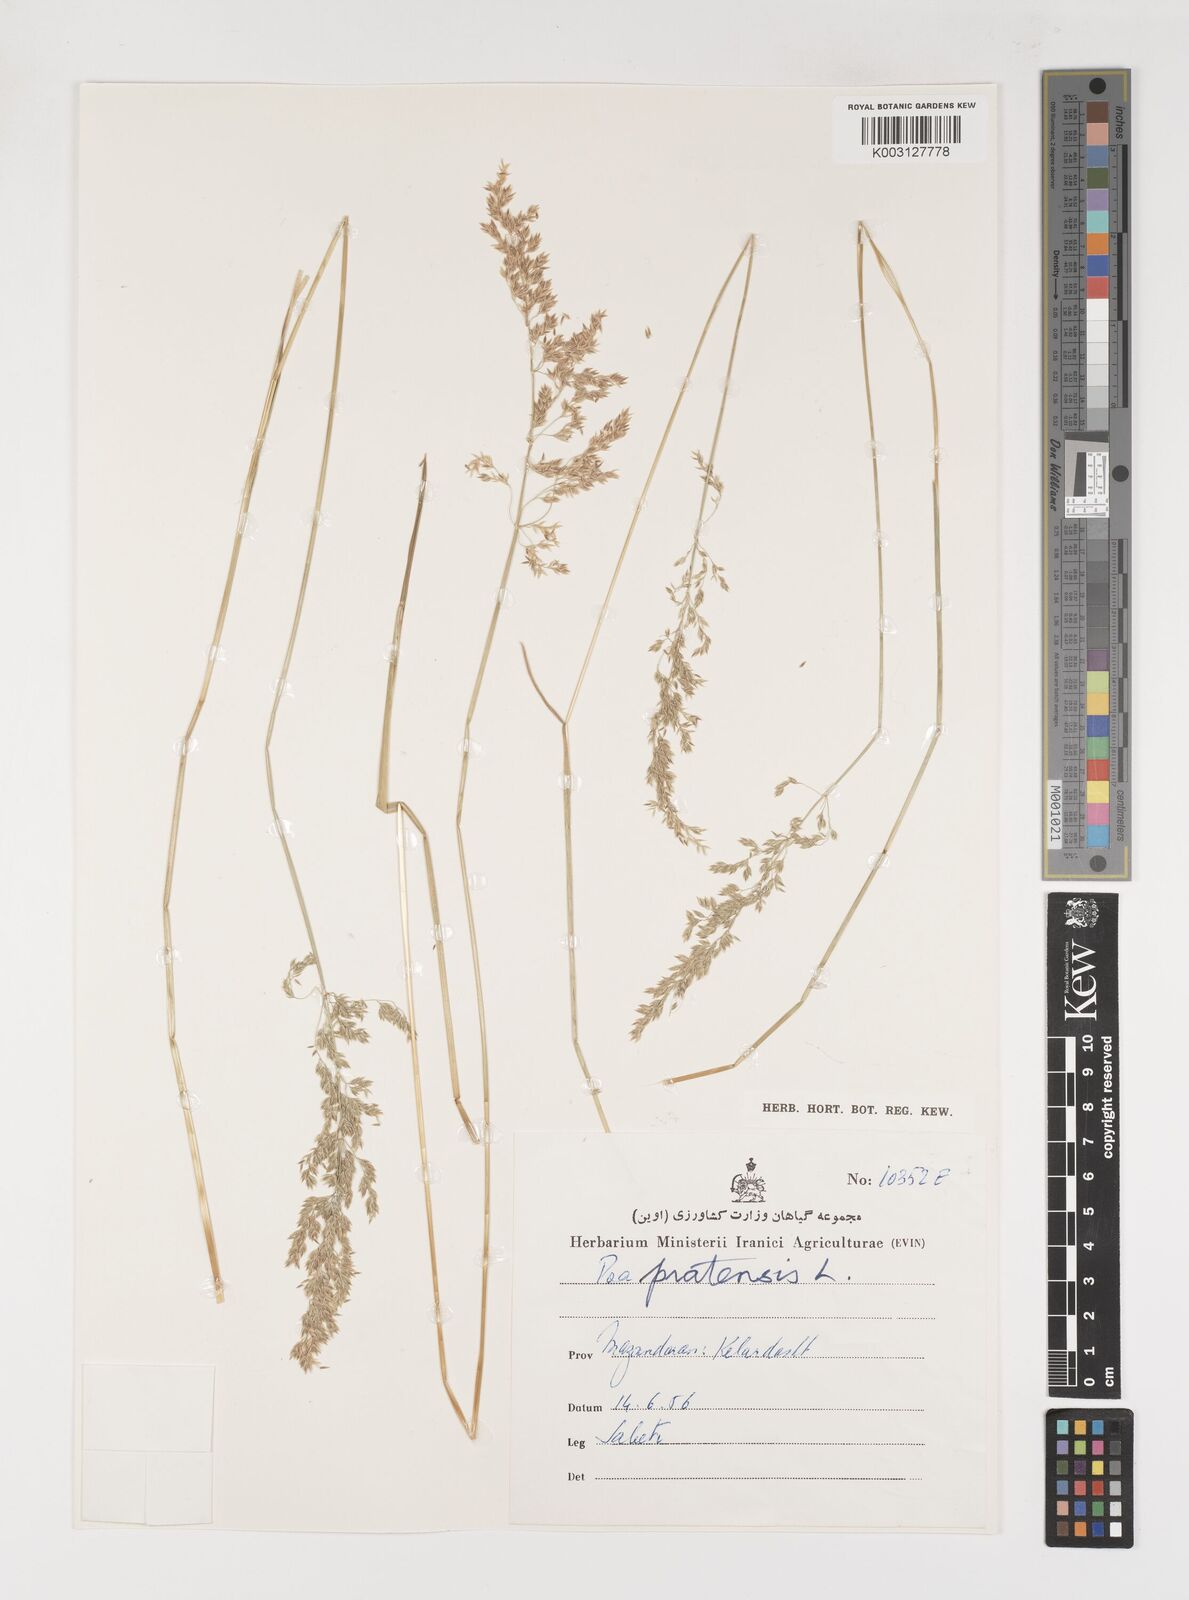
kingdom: Plantae
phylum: Tracheophyta
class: Liliopsida
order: Poales
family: Poaceae
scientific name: Poaceae
